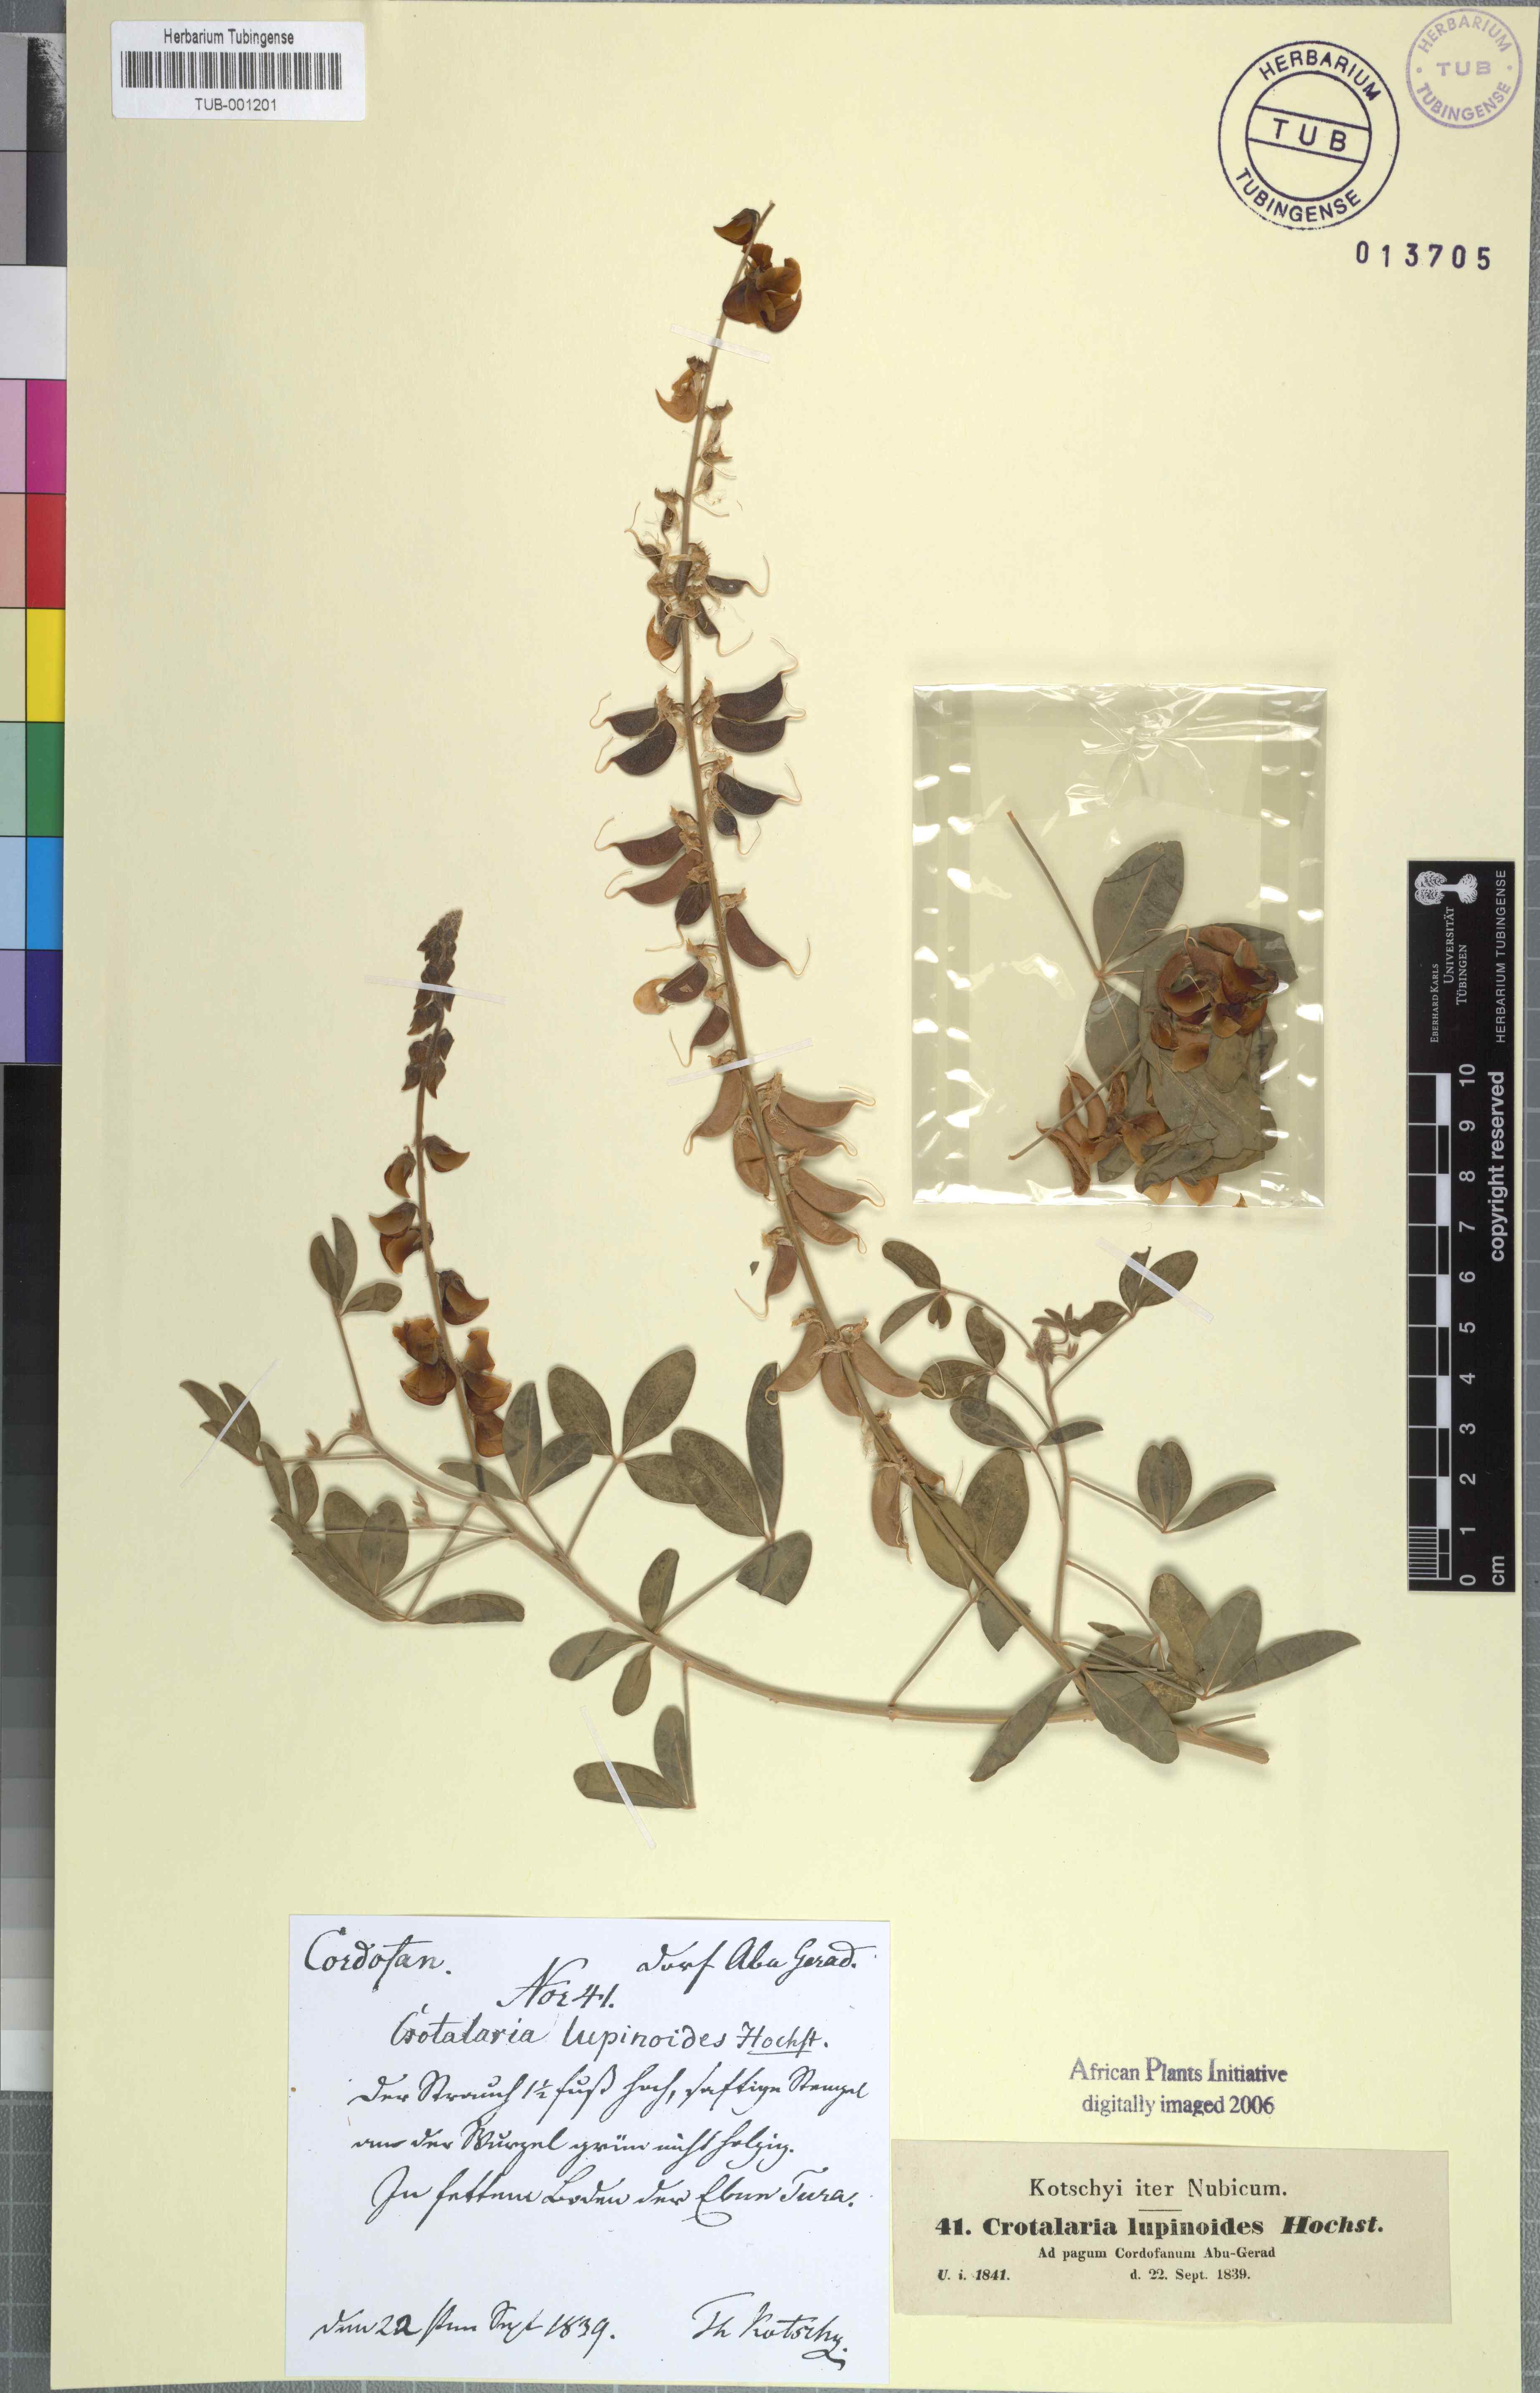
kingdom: Plantae
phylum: Tracheophyta
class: Magnoliopsida
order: Fabales
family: Fabaceae
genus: Crotalaria
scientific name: Crotalaria saltiana
